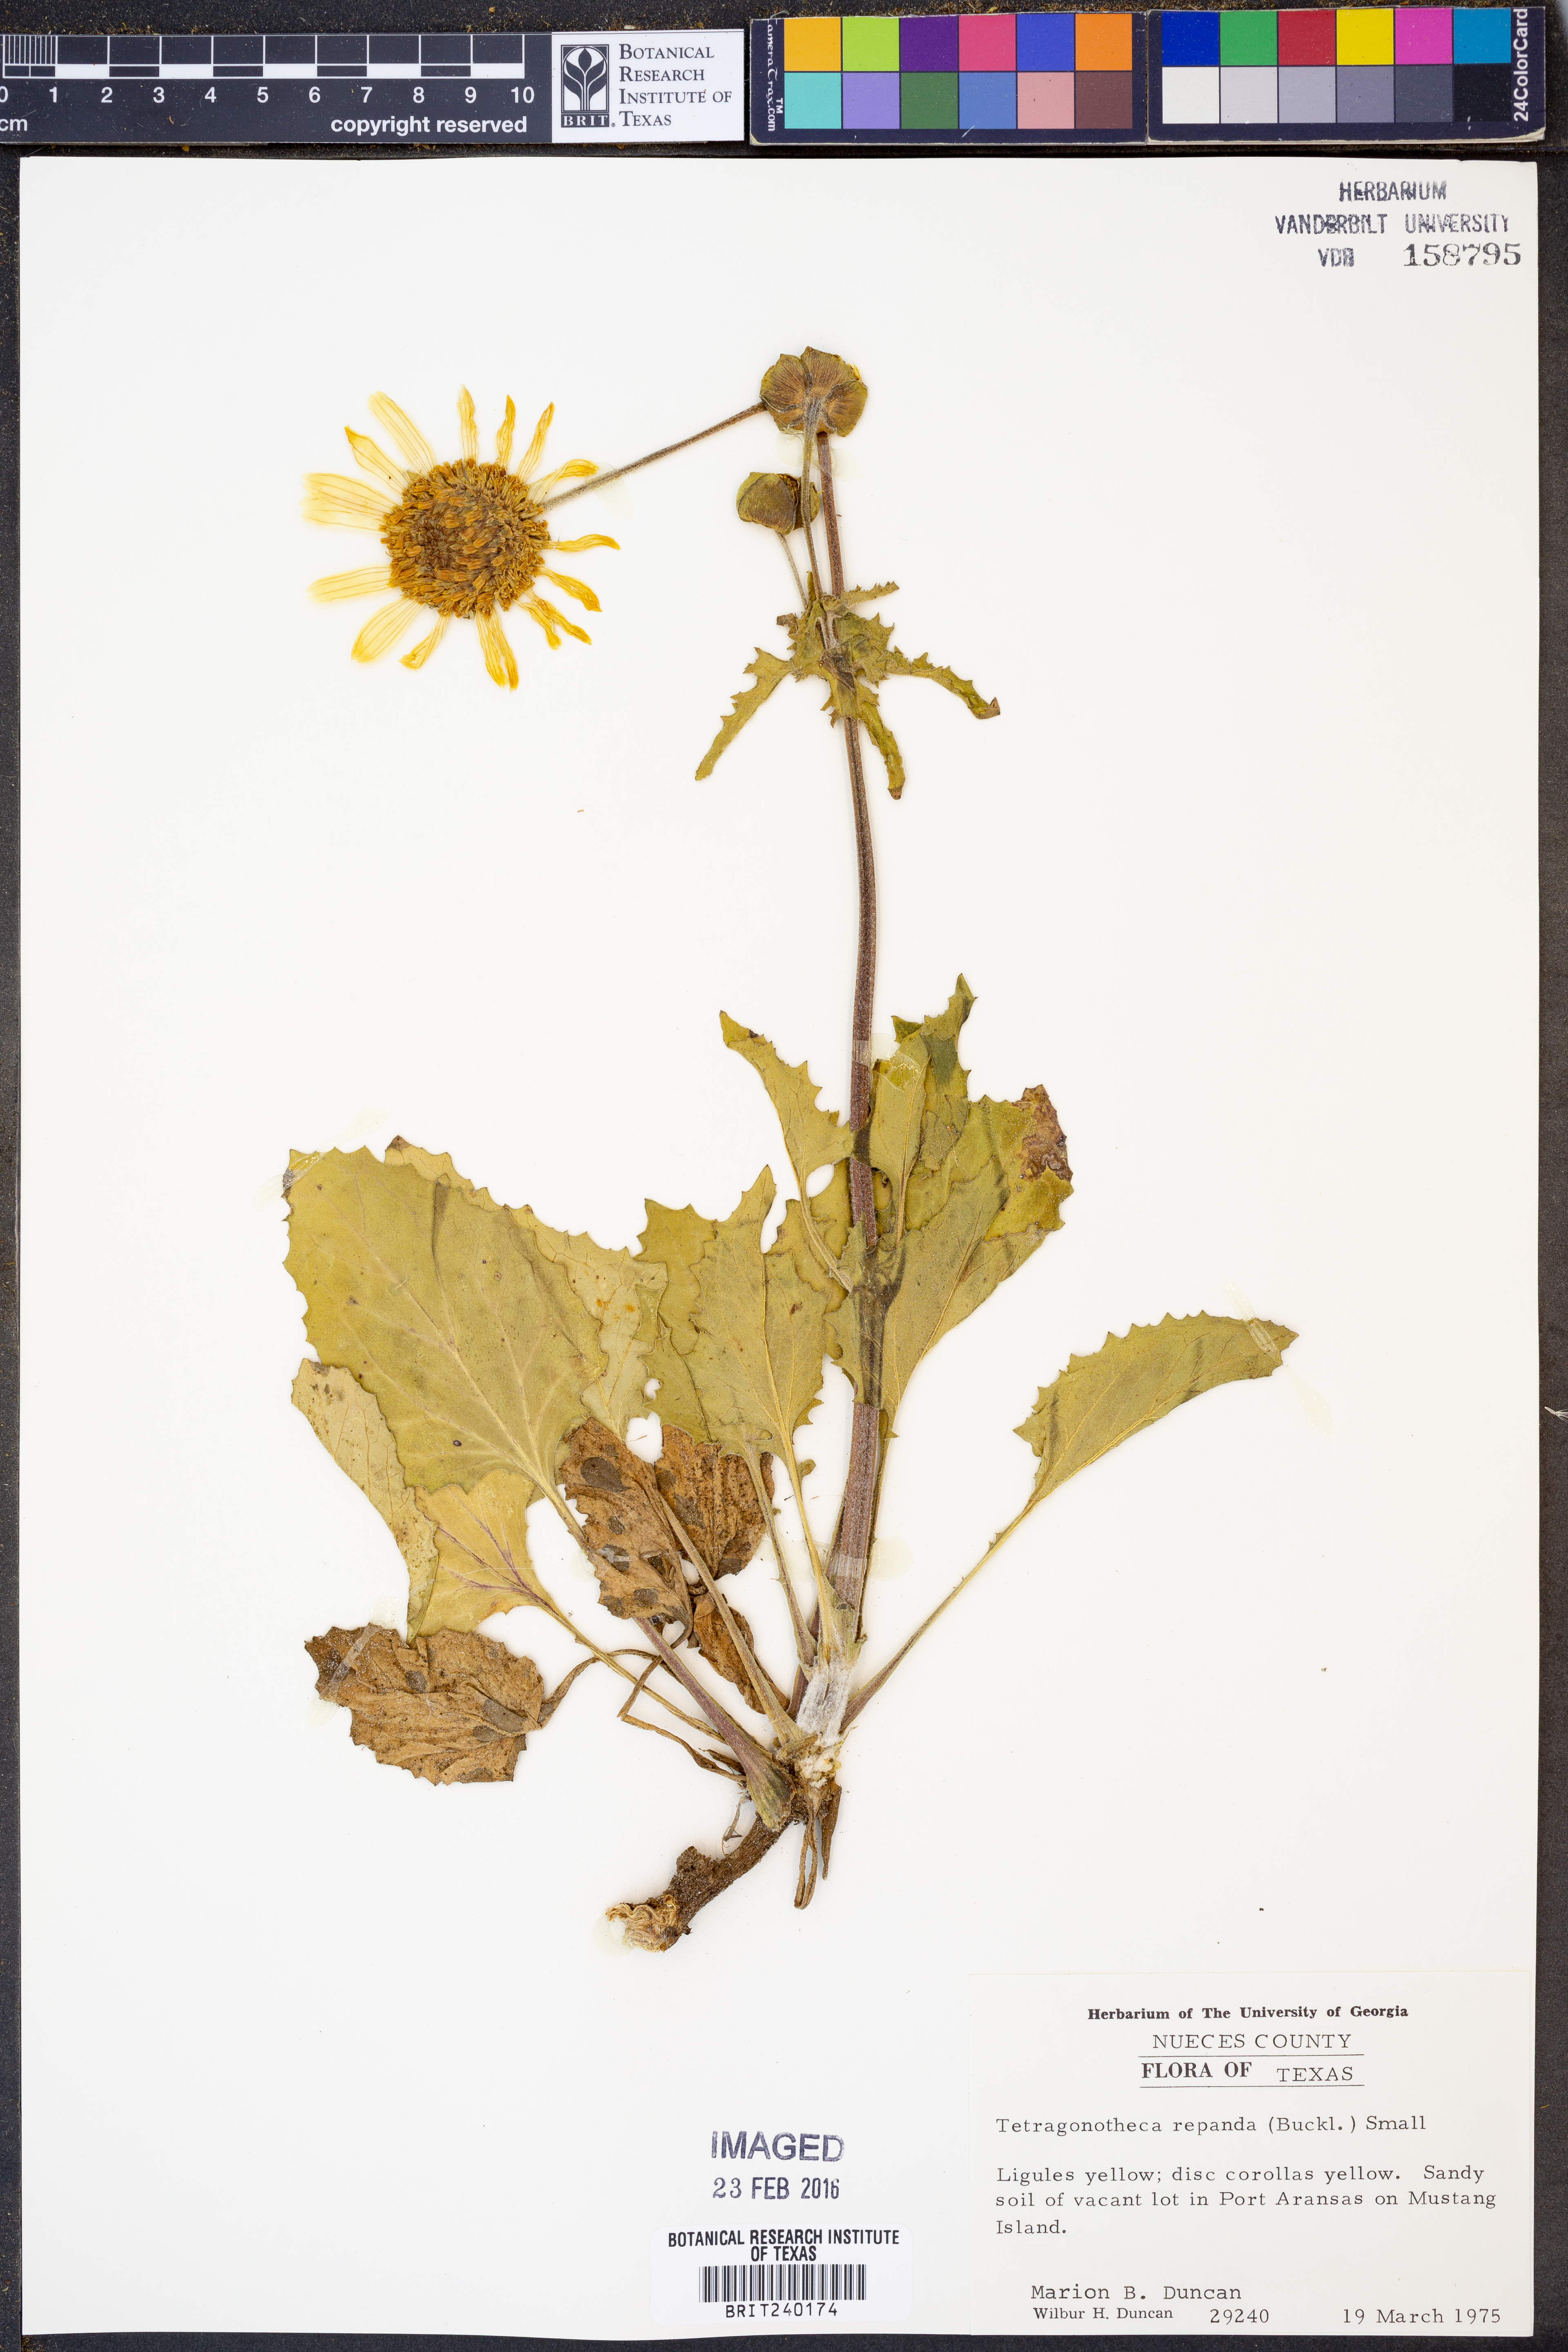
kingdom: Plantae
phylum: Tracheophyta
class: Magnoliopsida
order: Asterales
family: Asteraceae
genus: Tetragonotheca
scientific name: Tetragonotheca repanda
